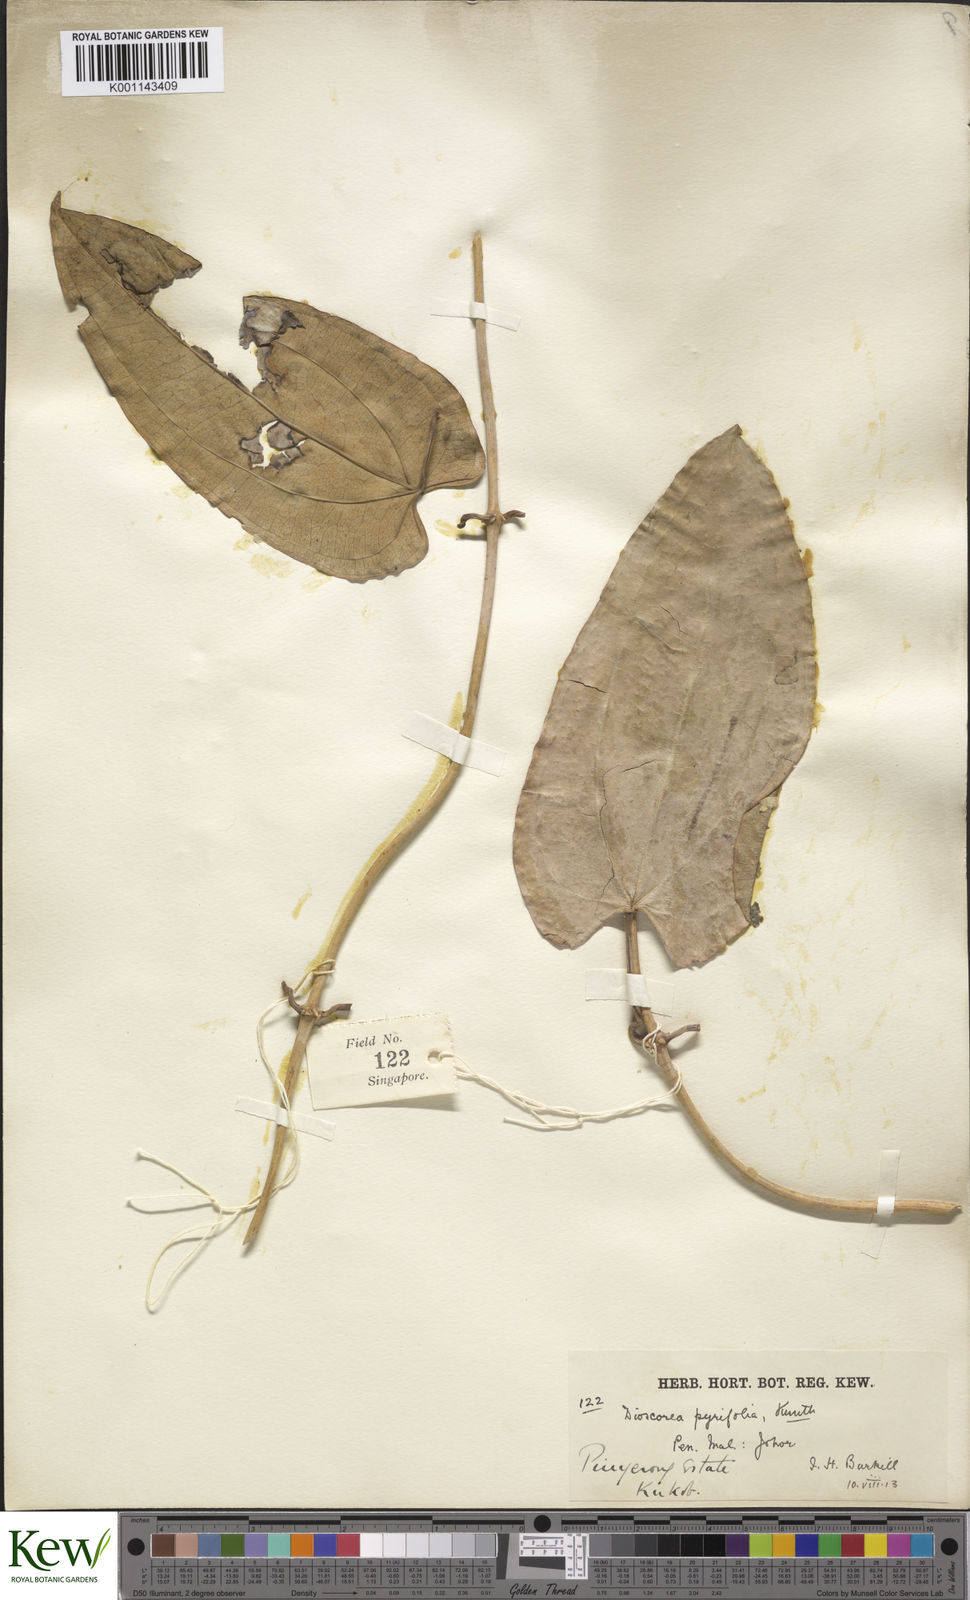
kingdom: Plantae
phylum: Tracheophyta
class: Liliopsida
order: Dioscoreales
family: Dioscoreaceae
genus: Dioscorea
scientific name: Dioscorea pyrifolia
